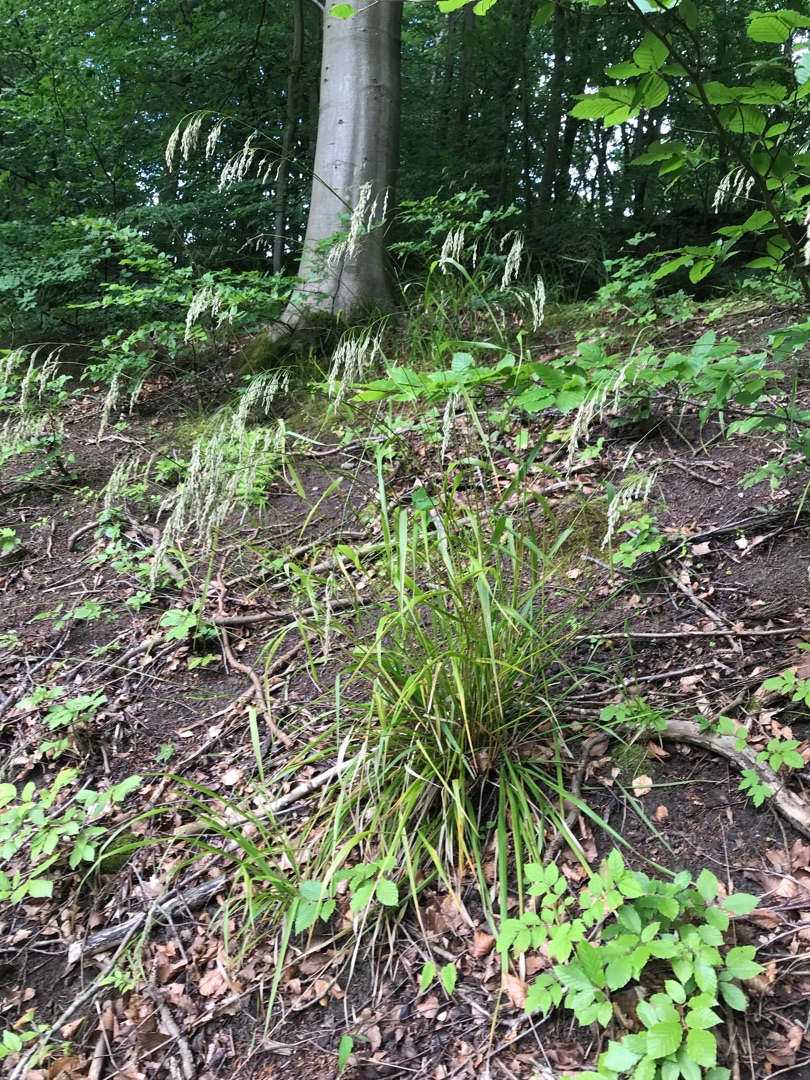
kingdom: Plantae
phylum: Tracheophyta
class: Liliopsida
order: Poales
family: Poaceae
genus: Festuca
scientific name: Festuca altissima
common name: Skov-svingel
